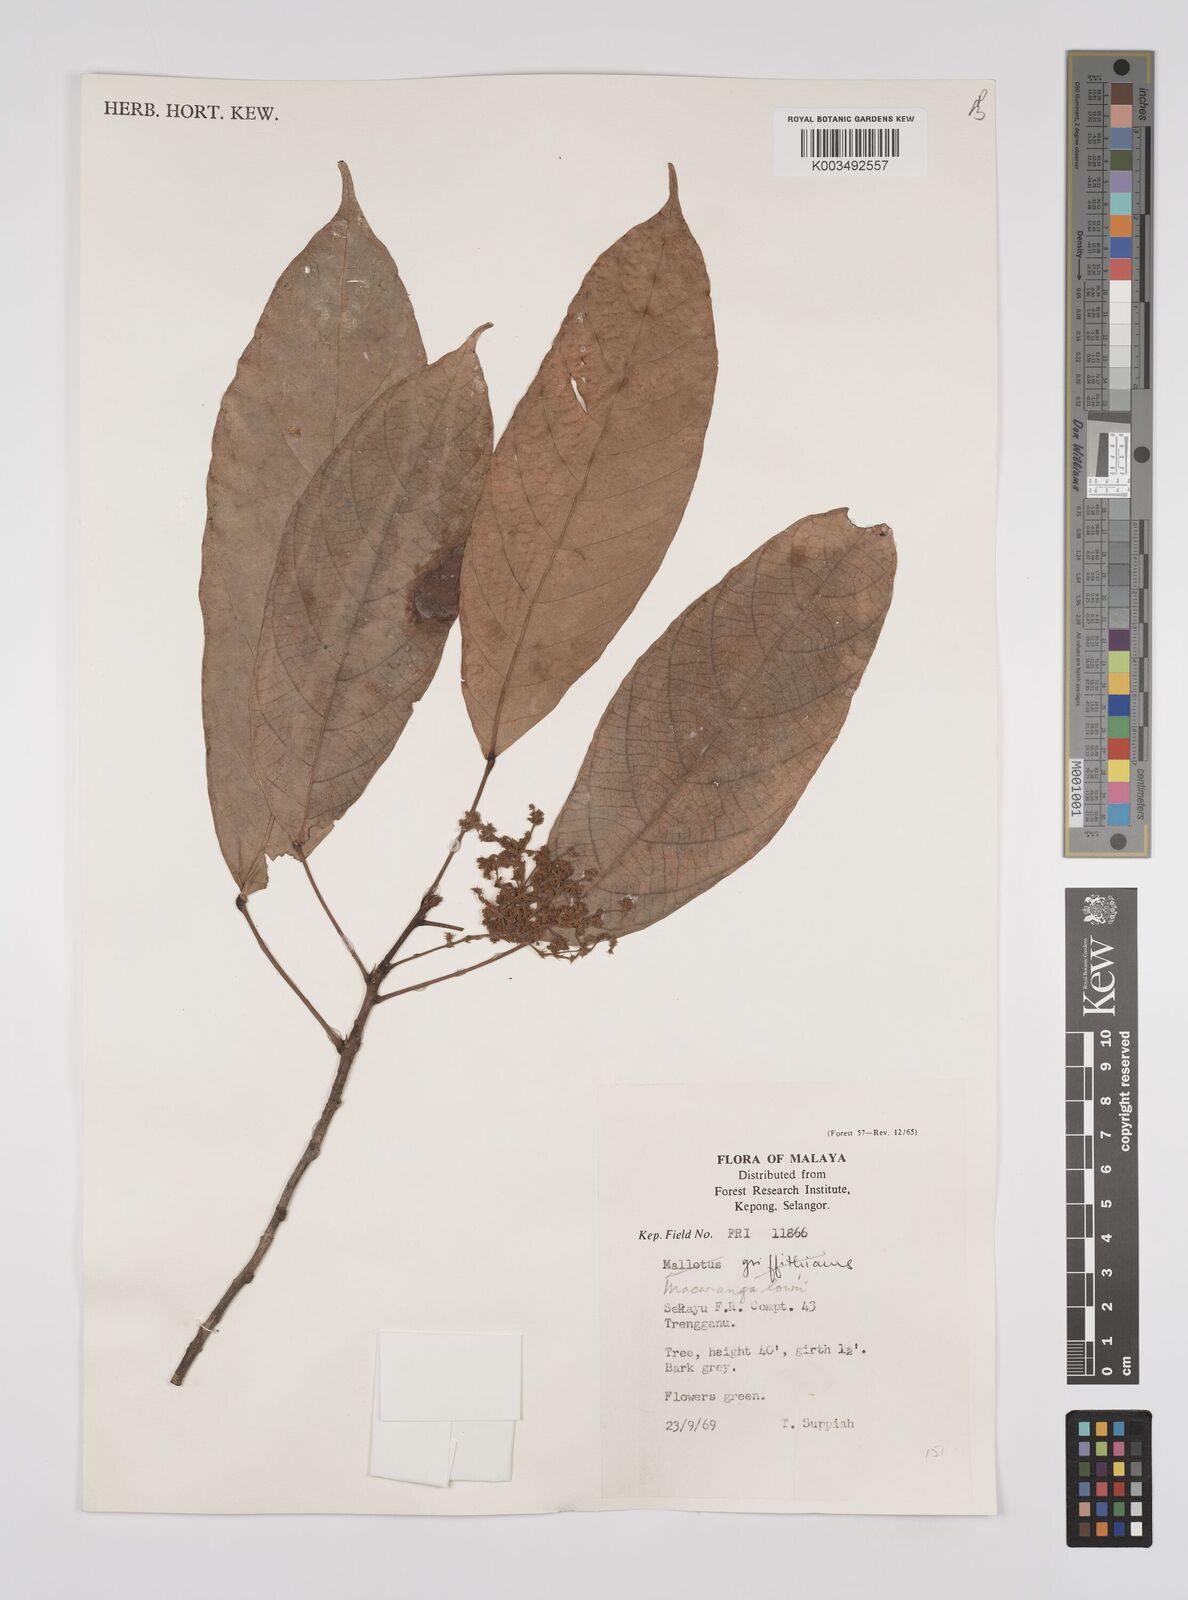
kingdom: Plantae
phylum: Tracheophyta
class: Magnoliopsida
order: Malpighiales
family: Euphorbiaceae
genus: Macaranga
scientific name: Macaranga lowii
